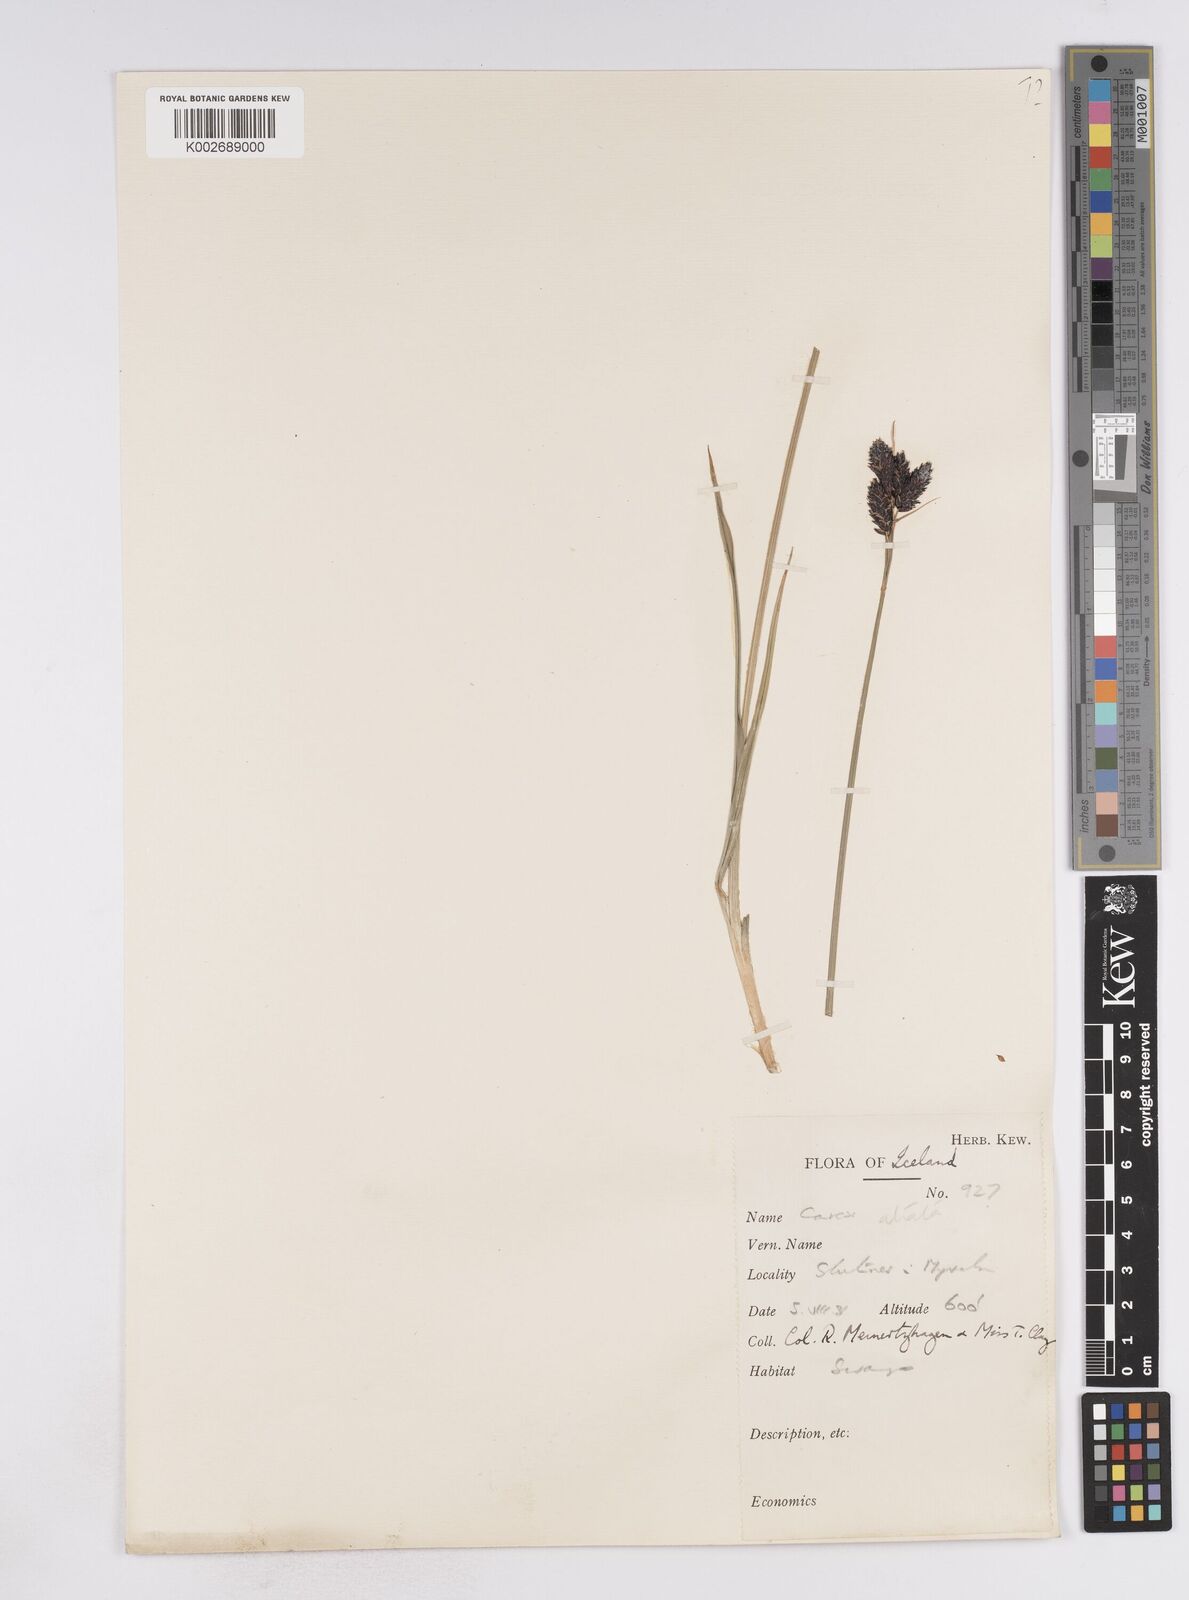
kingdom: Plantae
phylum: Tracheophyta
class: Liliopsida
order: Poales
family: Cyperaceae
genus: Carex
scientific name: Carex atrata
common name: Black alpine sedge
